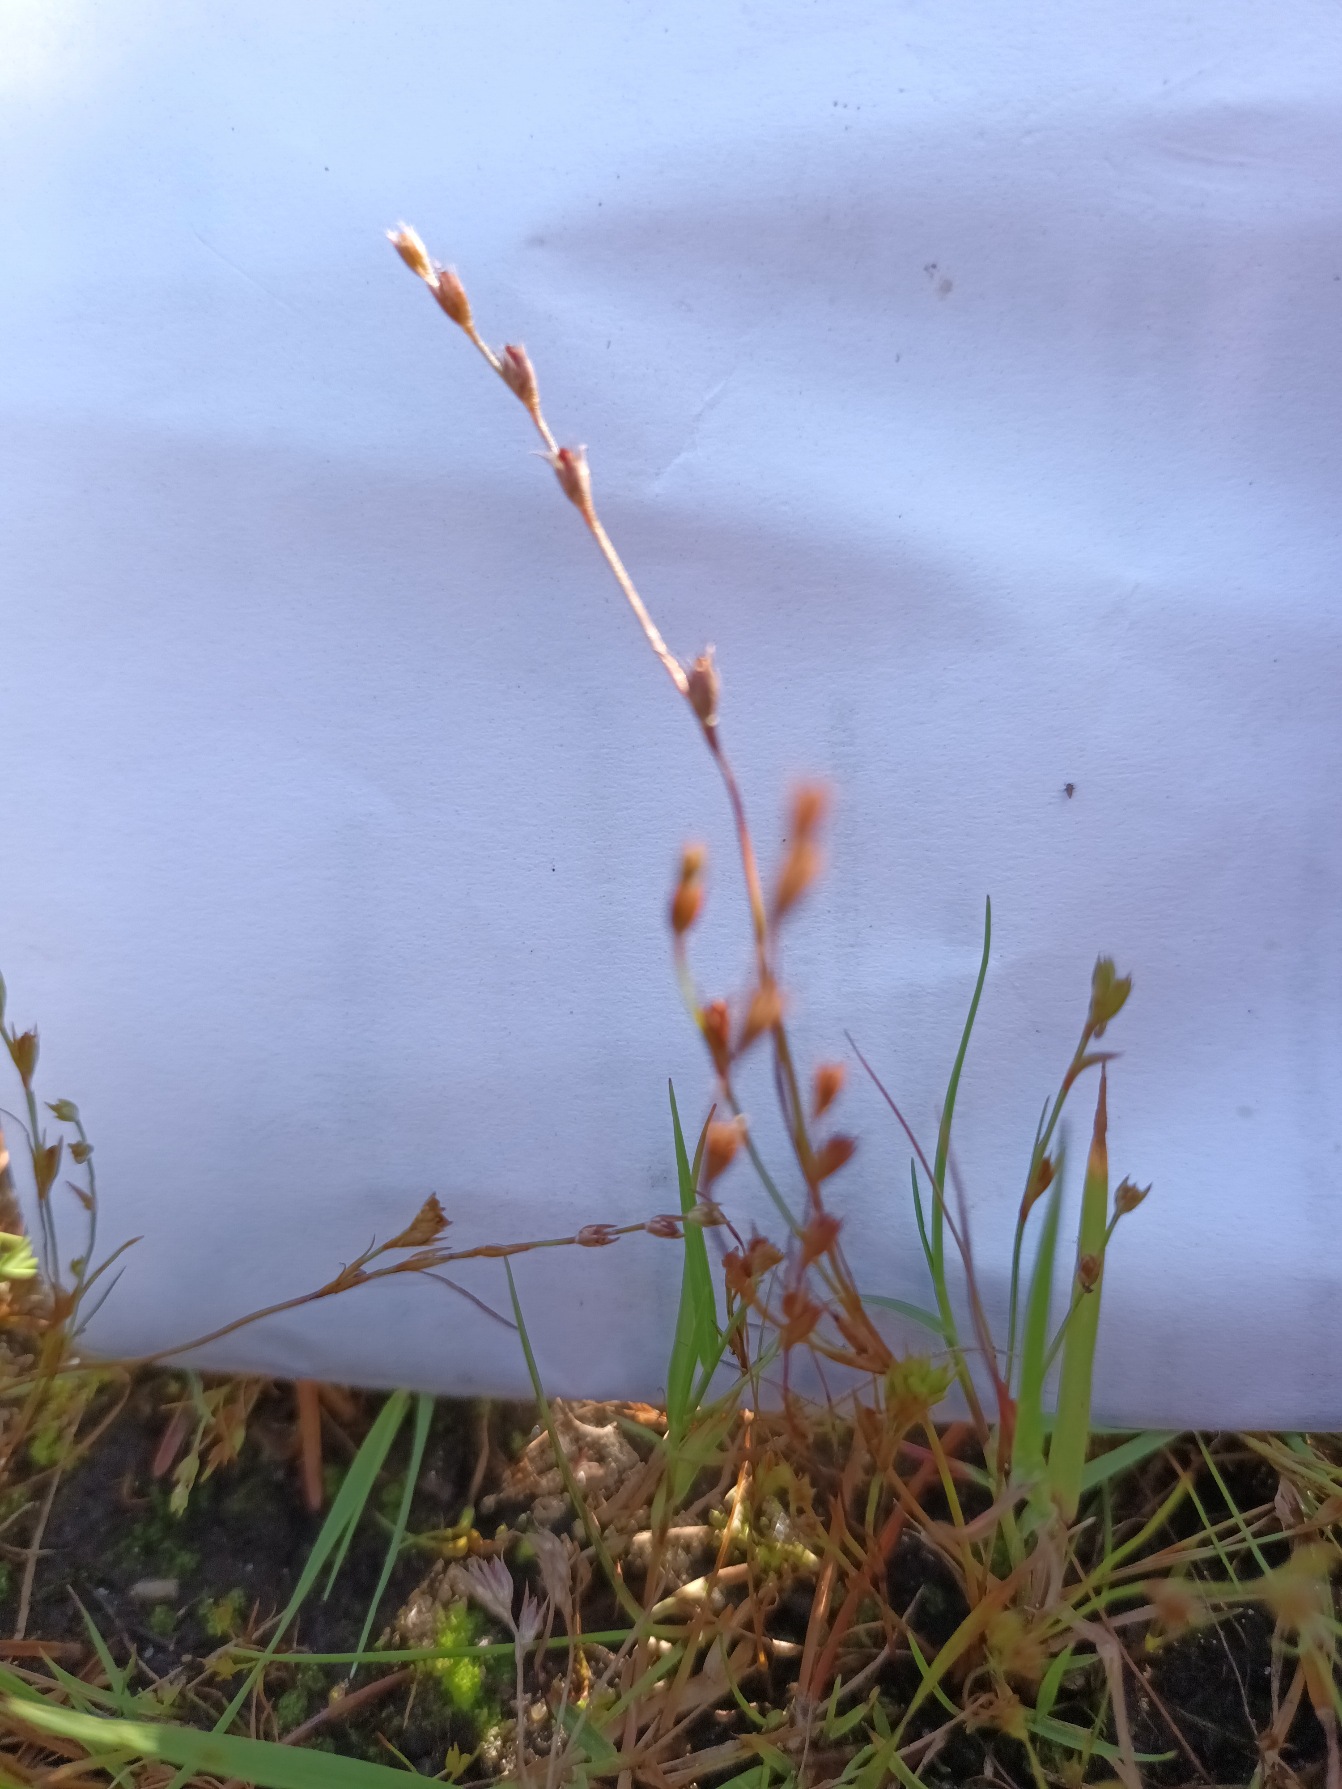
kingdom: Plantae
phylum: Tracheophyta
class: Liliopsida
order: Poales
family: Juncaceae
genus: Juncus
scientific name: Juncus minutulus
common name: Småblomstret siv
